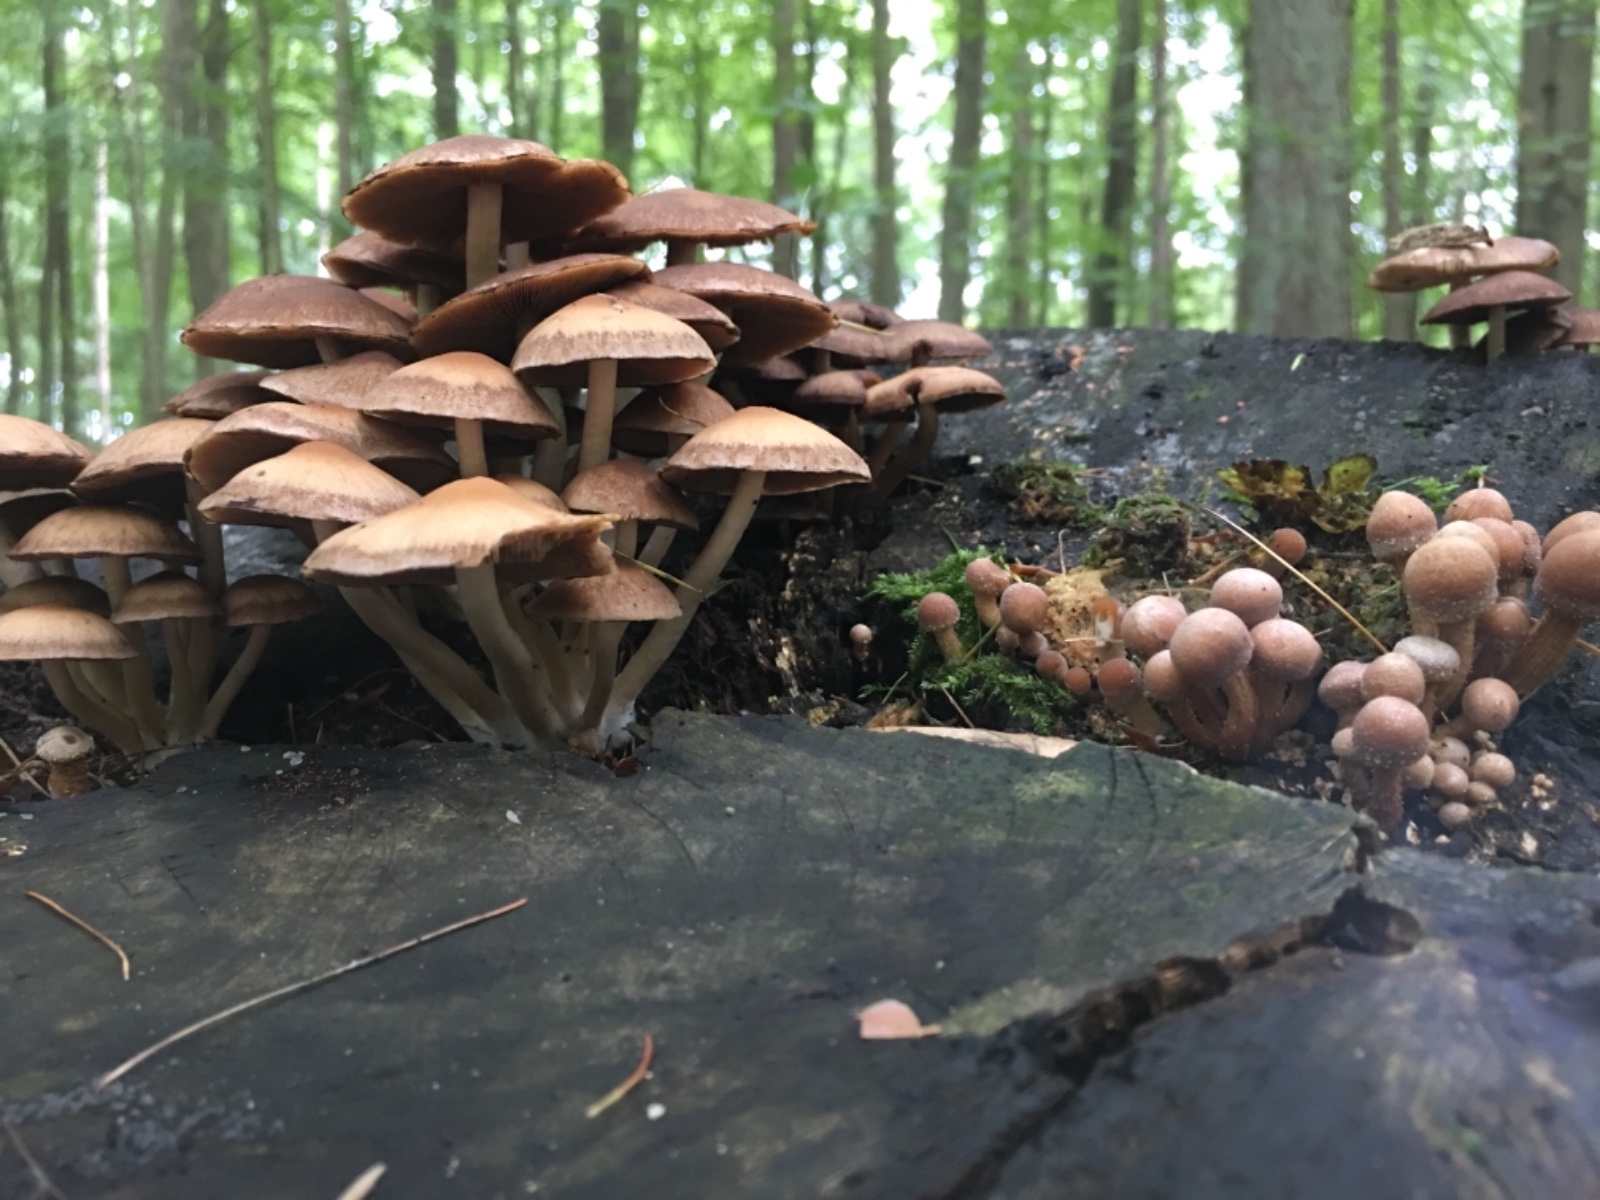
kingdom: Fungi
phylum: Basidiomycota
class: Agaricomycetes
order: Agaricales
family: Psathyrellaceae
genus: Psathyrella
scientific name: Psathyrella piluliformis
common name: lysstokket mørkhat
